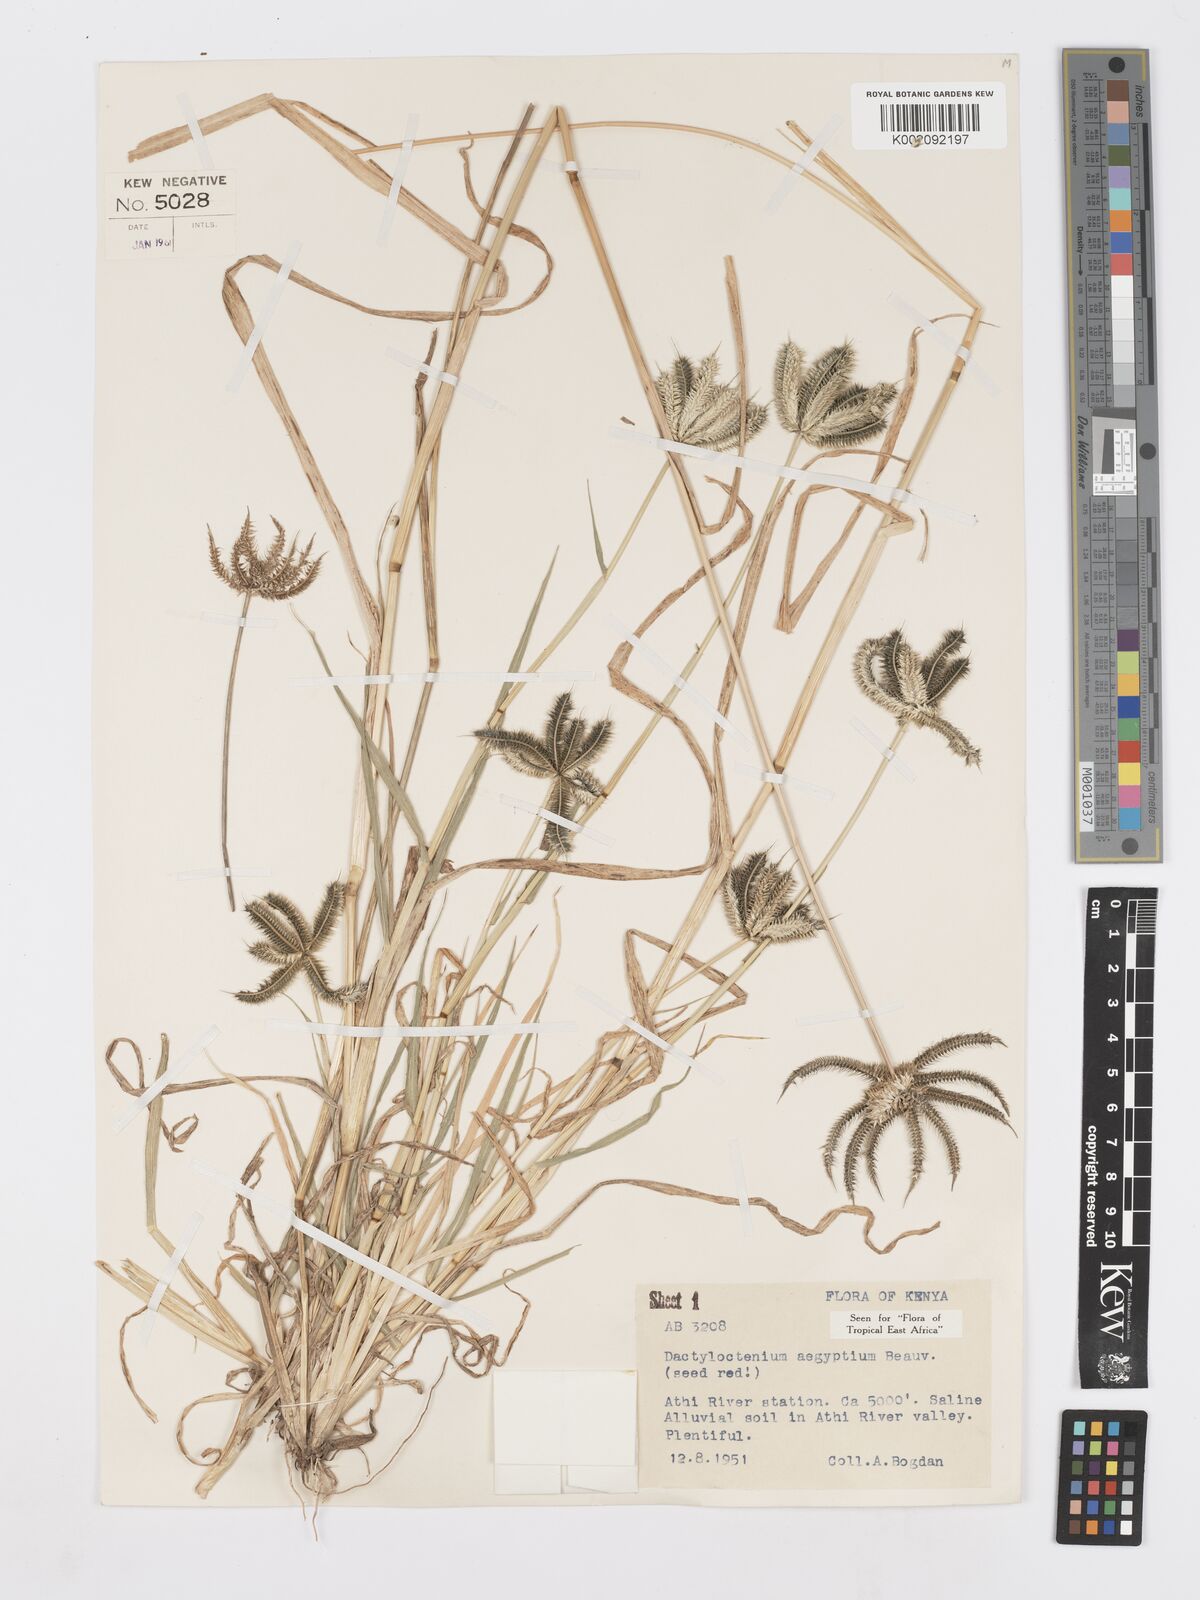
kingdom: Plantae
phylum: Tracheophyta
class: Liliopsida
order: Poales
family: Poaceae
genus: Dactyloctenium
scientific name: Dactyloctenium aegyptium
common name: Egyptian grass
